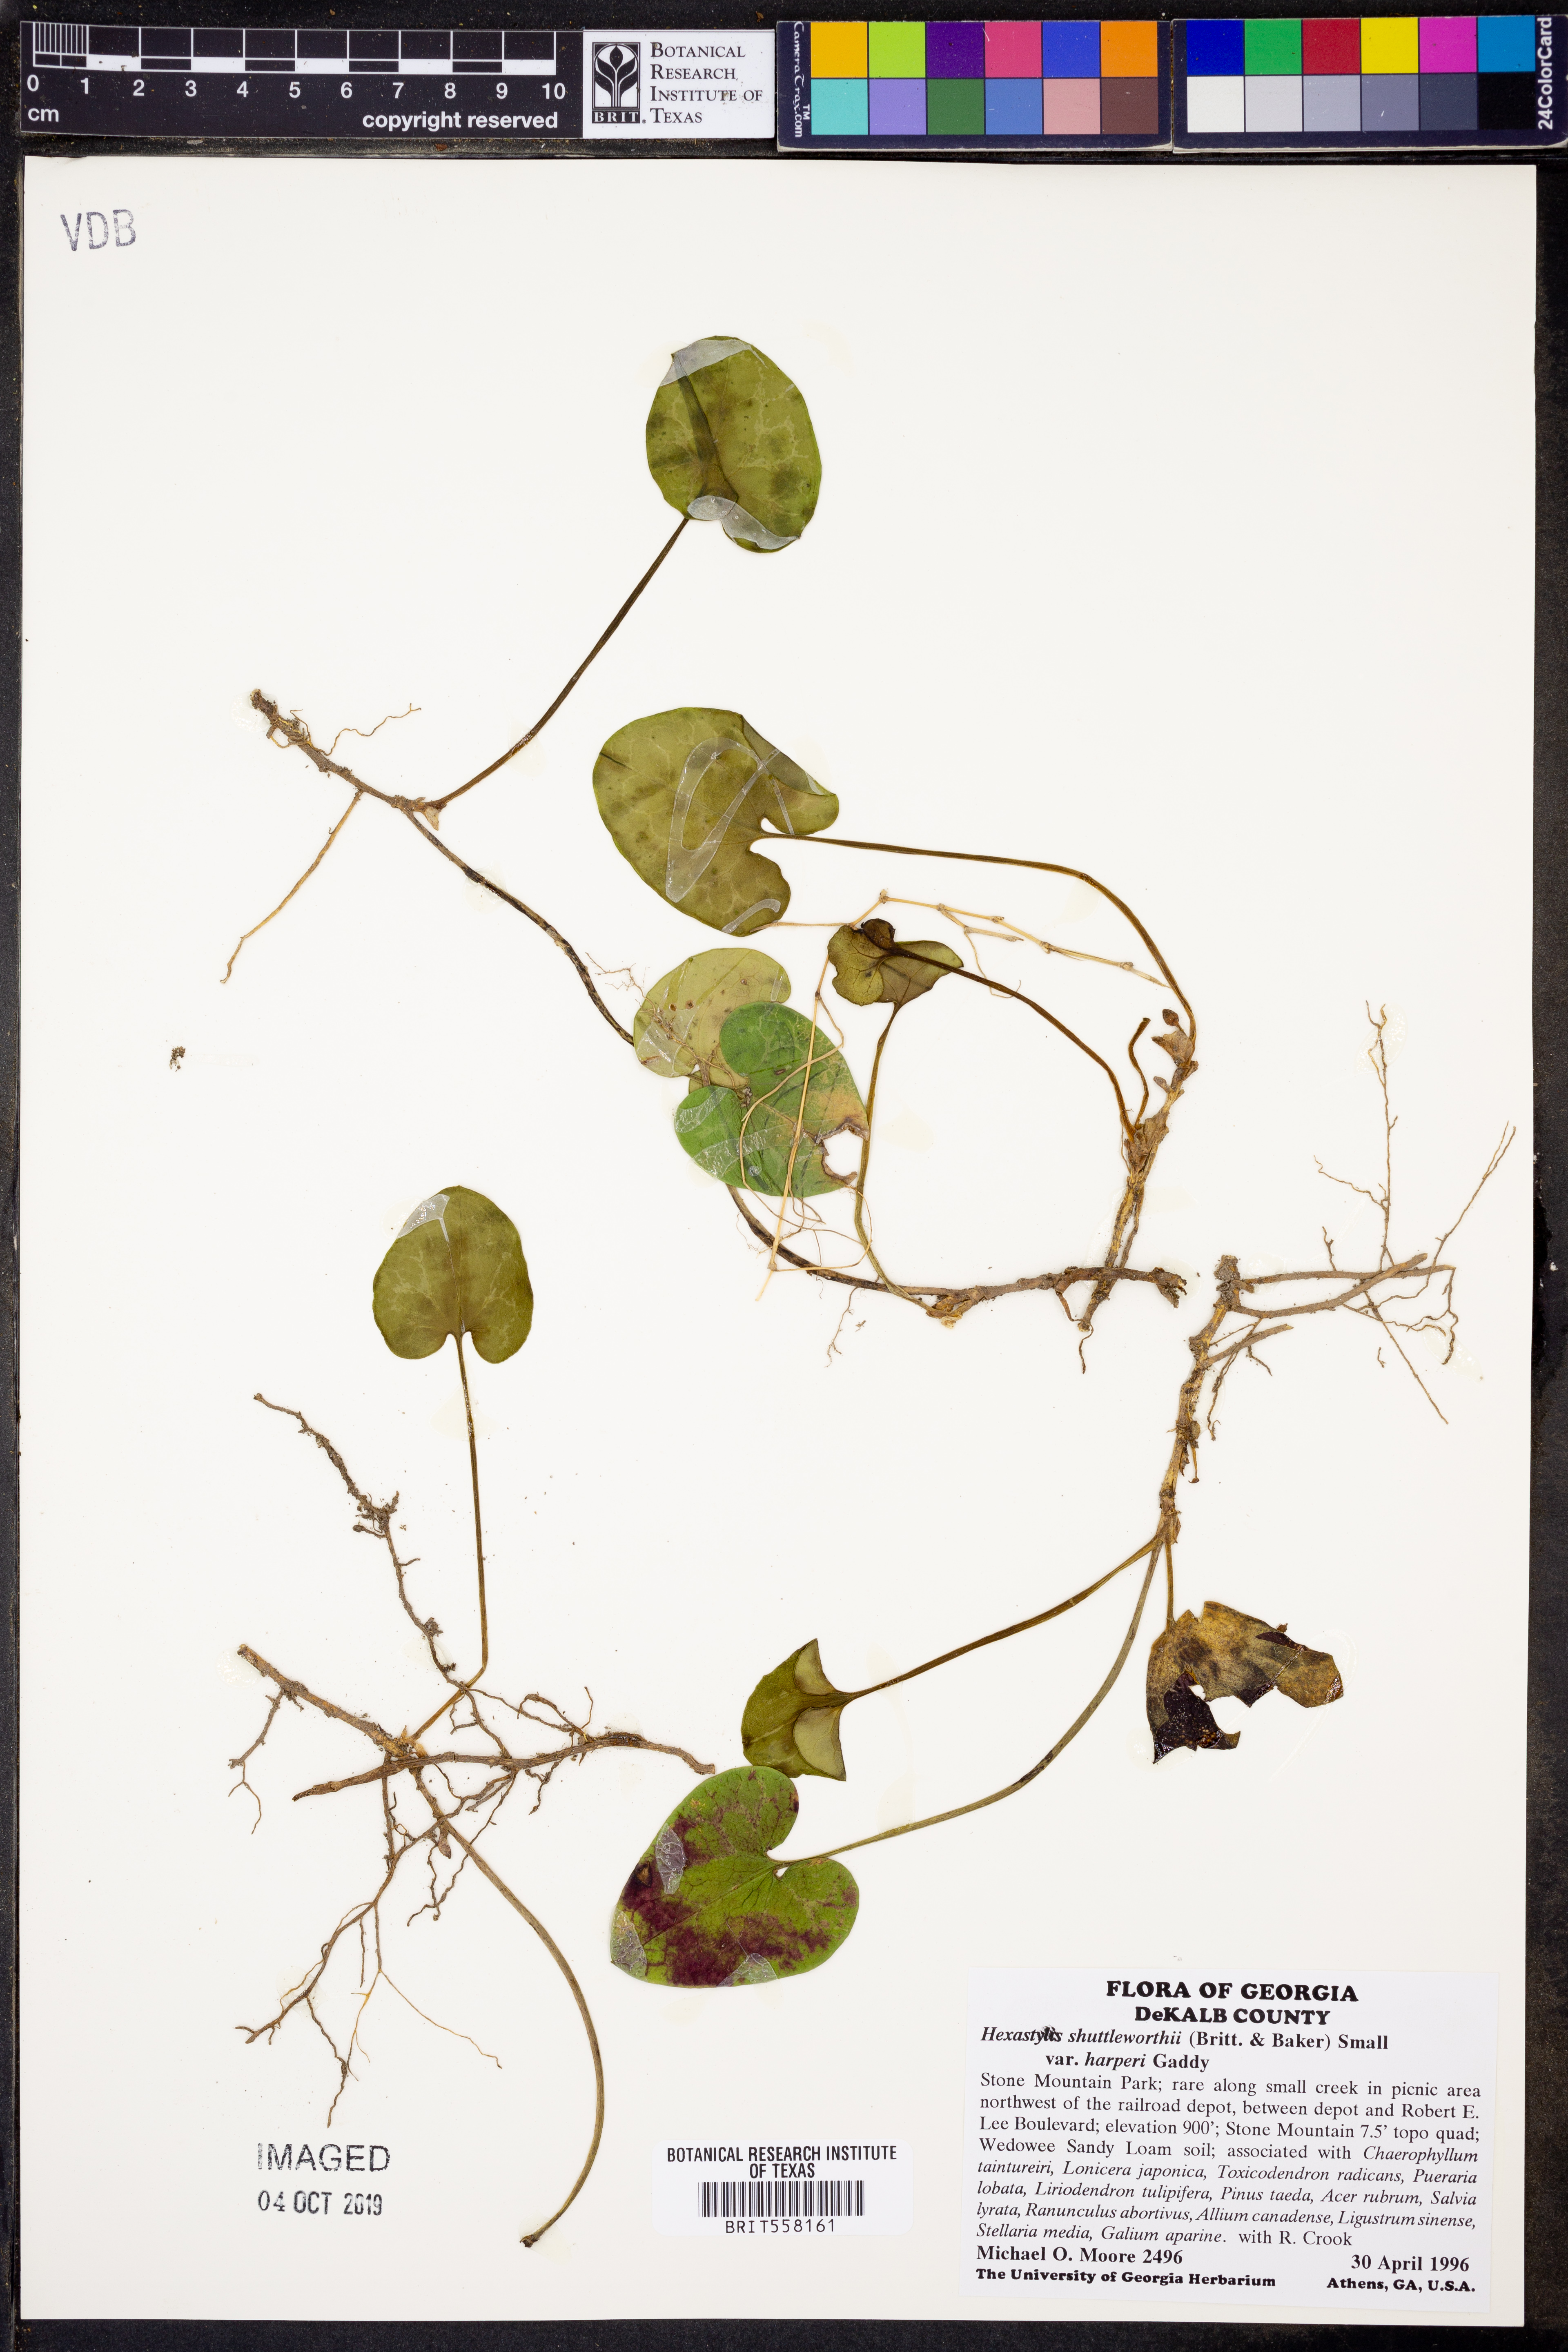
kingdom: Plantae
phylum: Tracheophyta
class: Magnoliopsida
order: Piperales
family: Aristolochiaceae
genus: Hexastylis
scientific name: Hexastylis harperi
